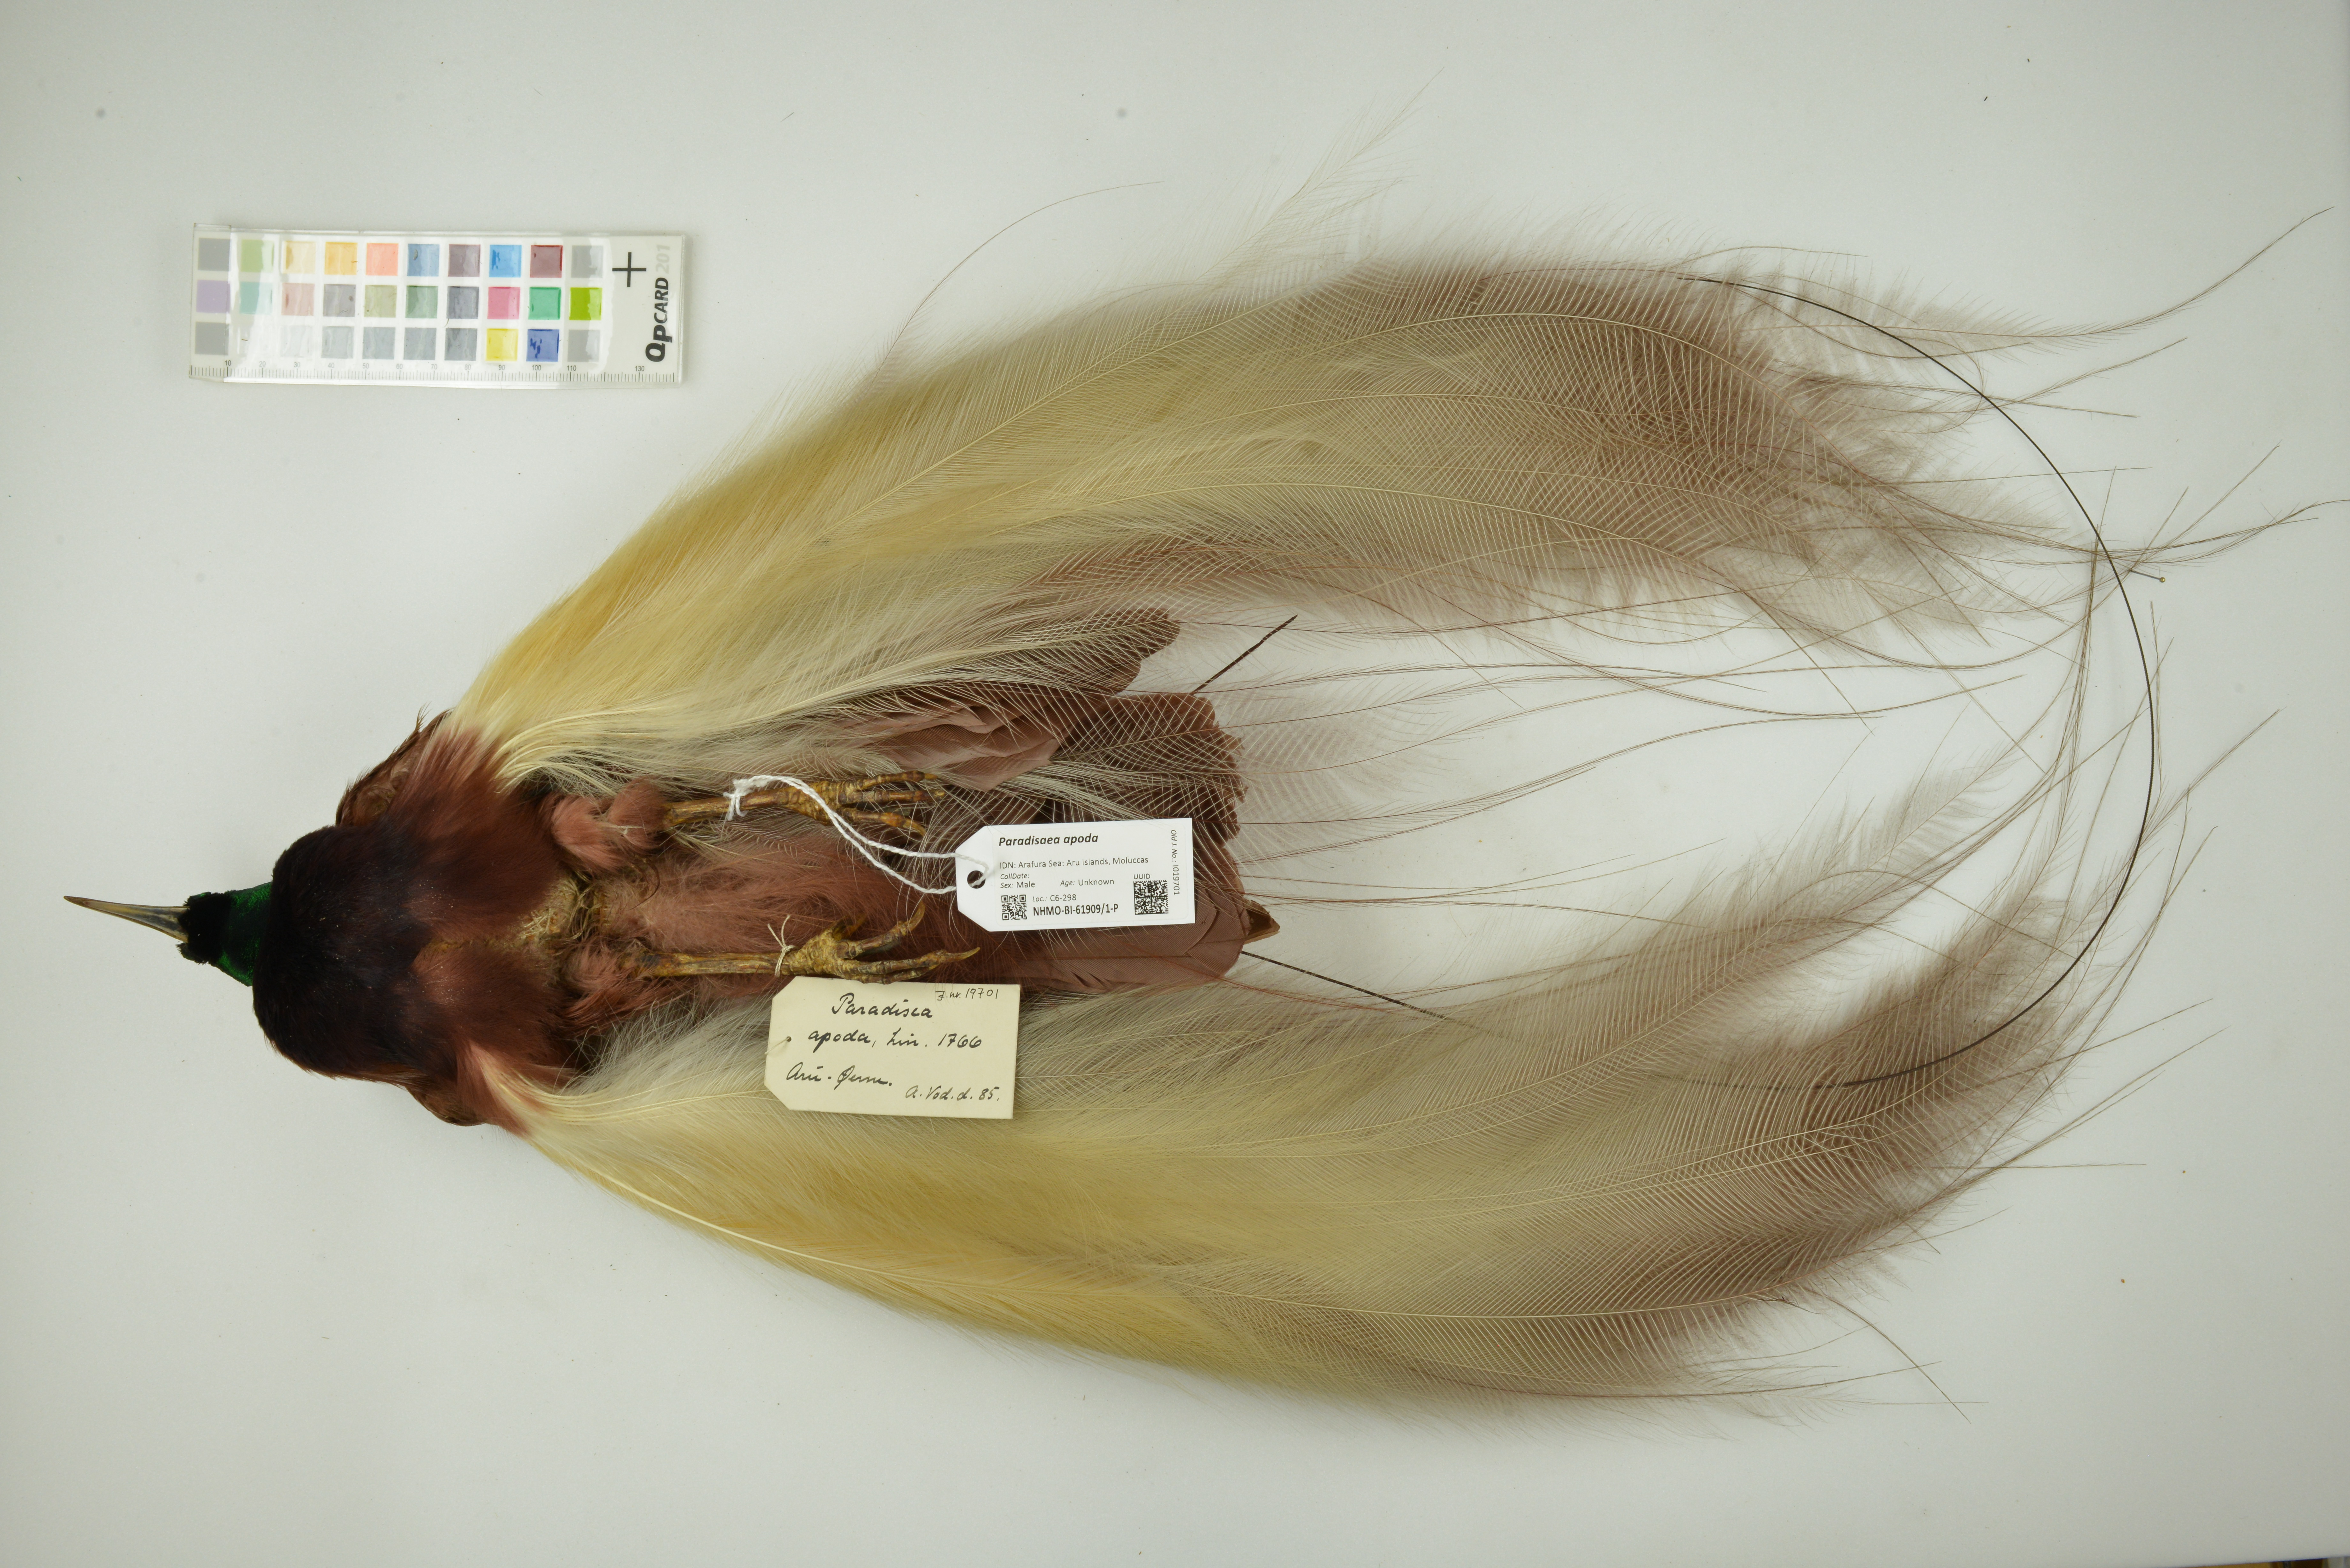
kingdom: Animalia
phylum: Chordata
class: Aves
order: Passeriformes
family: Paradisaeidae
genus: Paradisaea
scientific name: Paradisaea apoda
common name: Greater bird-of-paradise
